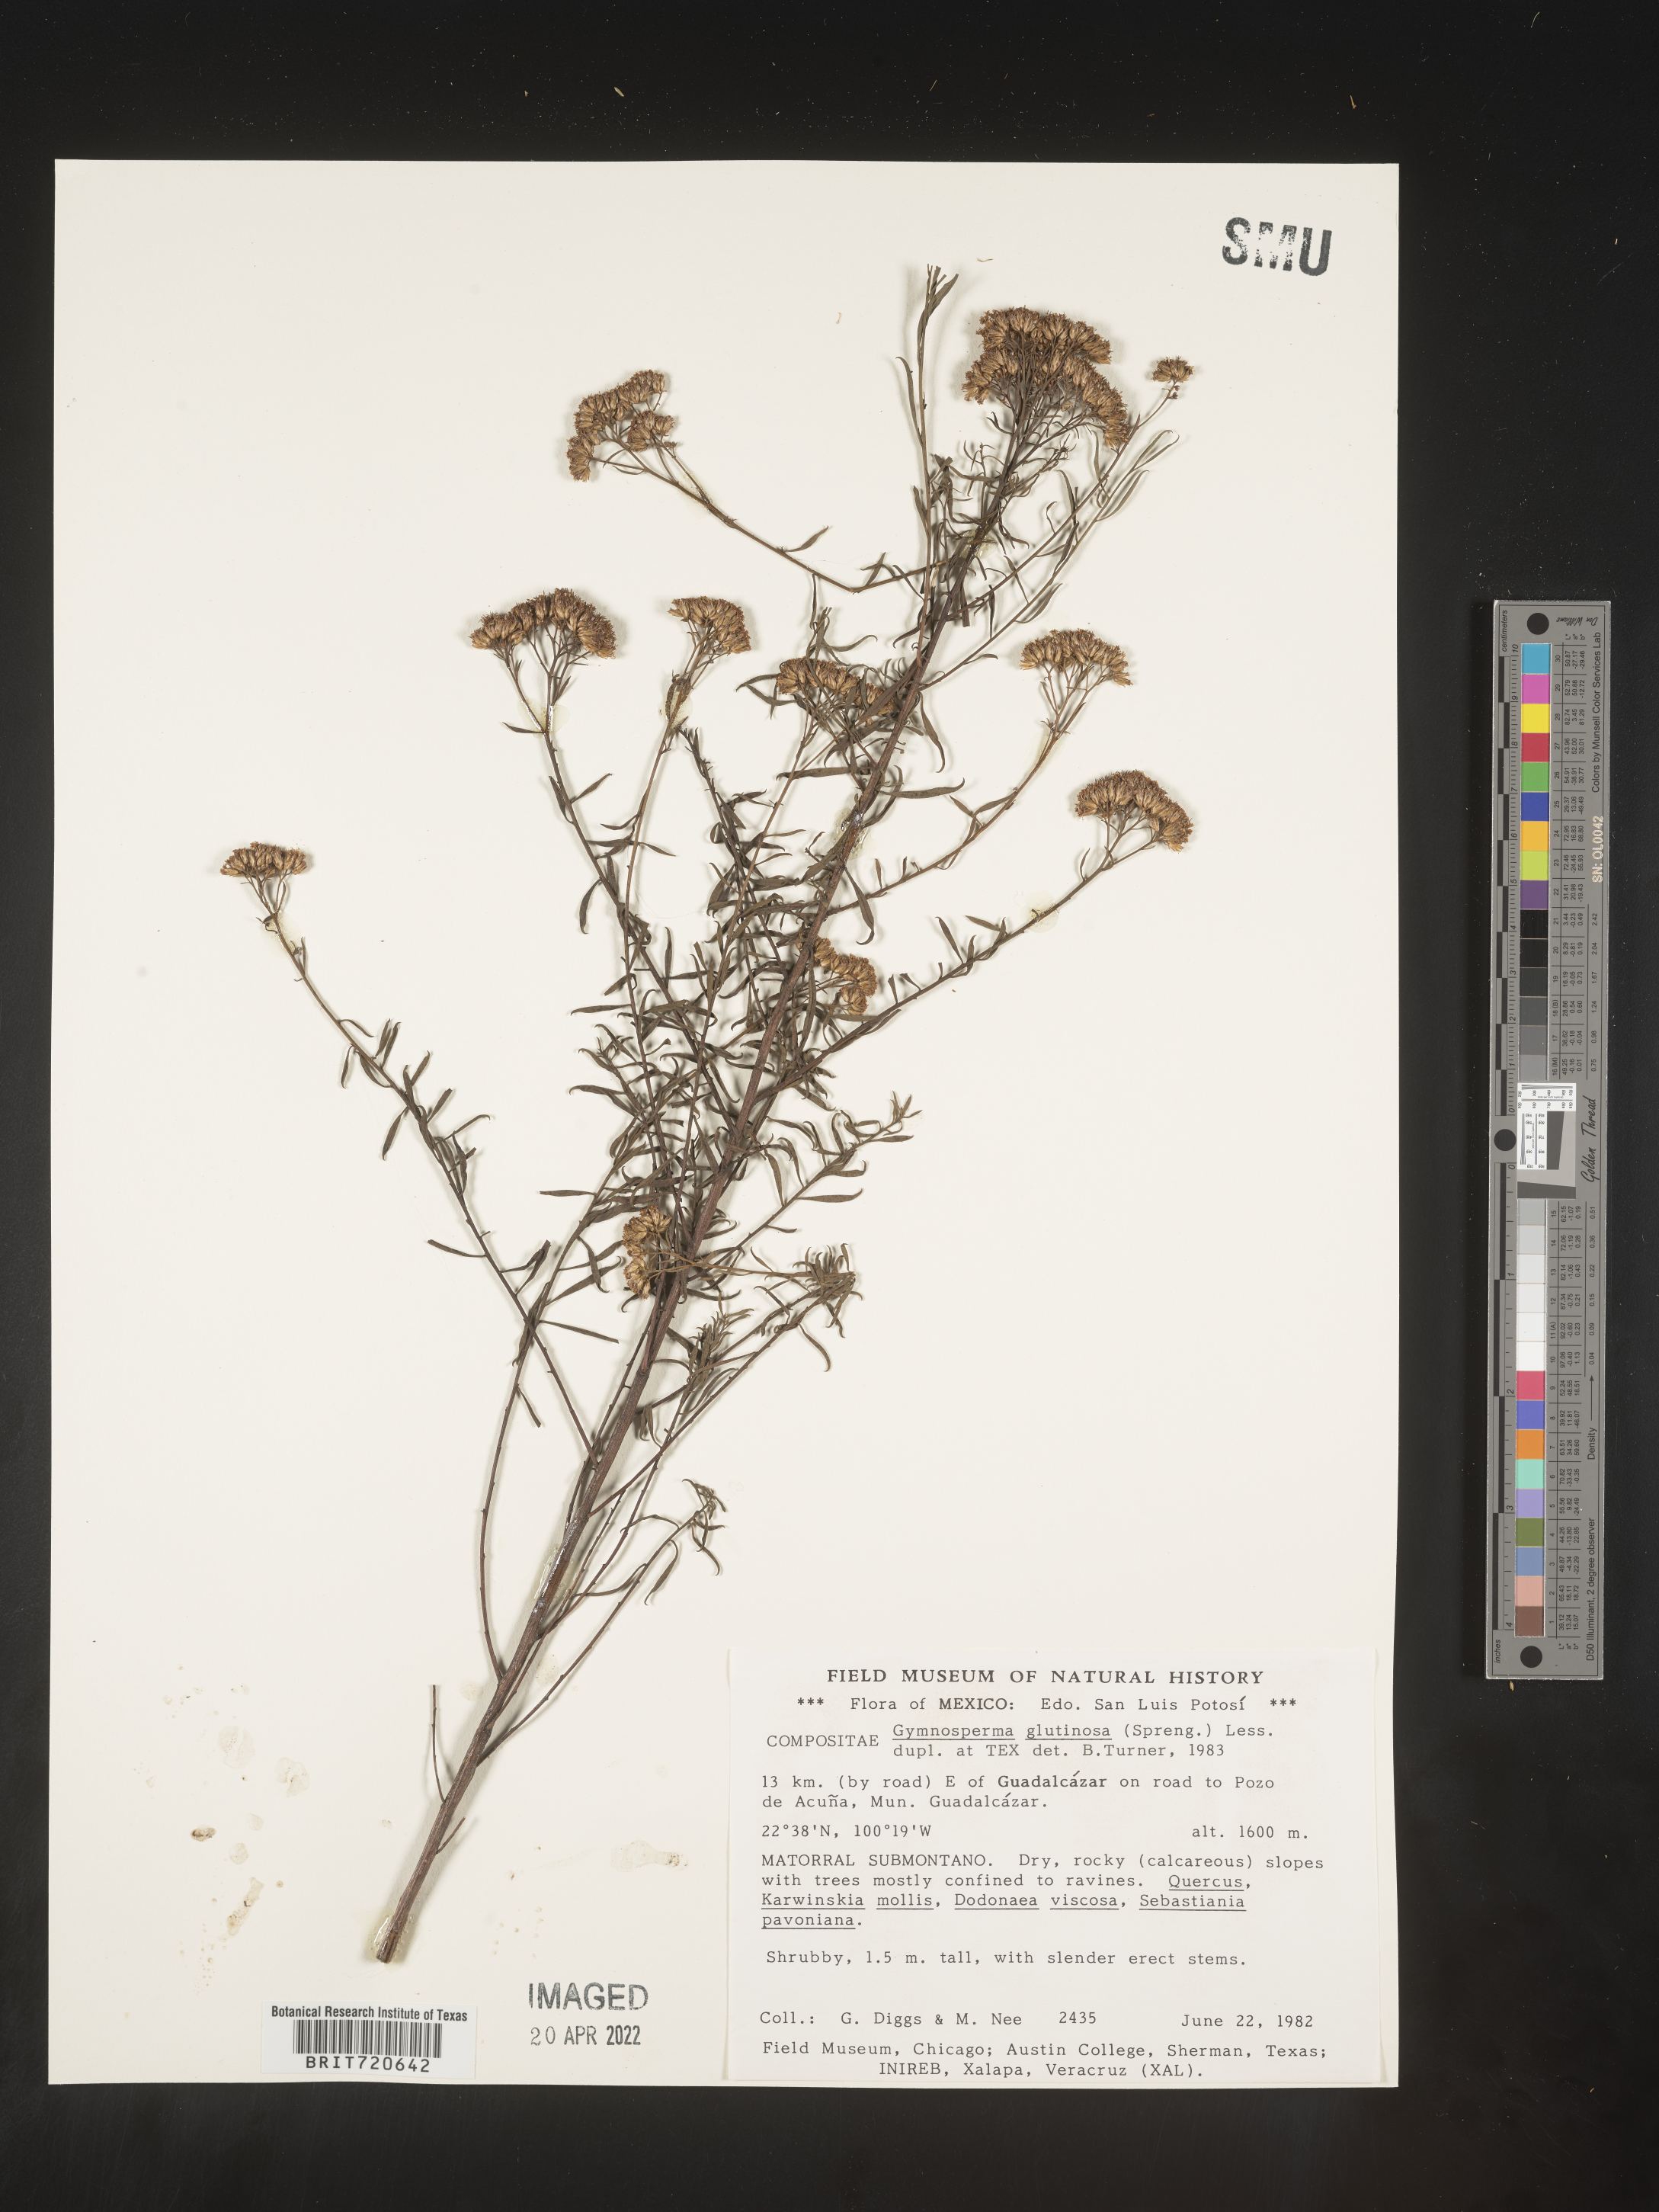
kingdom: Plantae
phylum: Tracheophyta
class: Magnoliopsida
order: Asterales
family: Asteraceae
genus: Gymnosperma
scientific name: Gymnosperma glutinosum
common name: Gumhead
